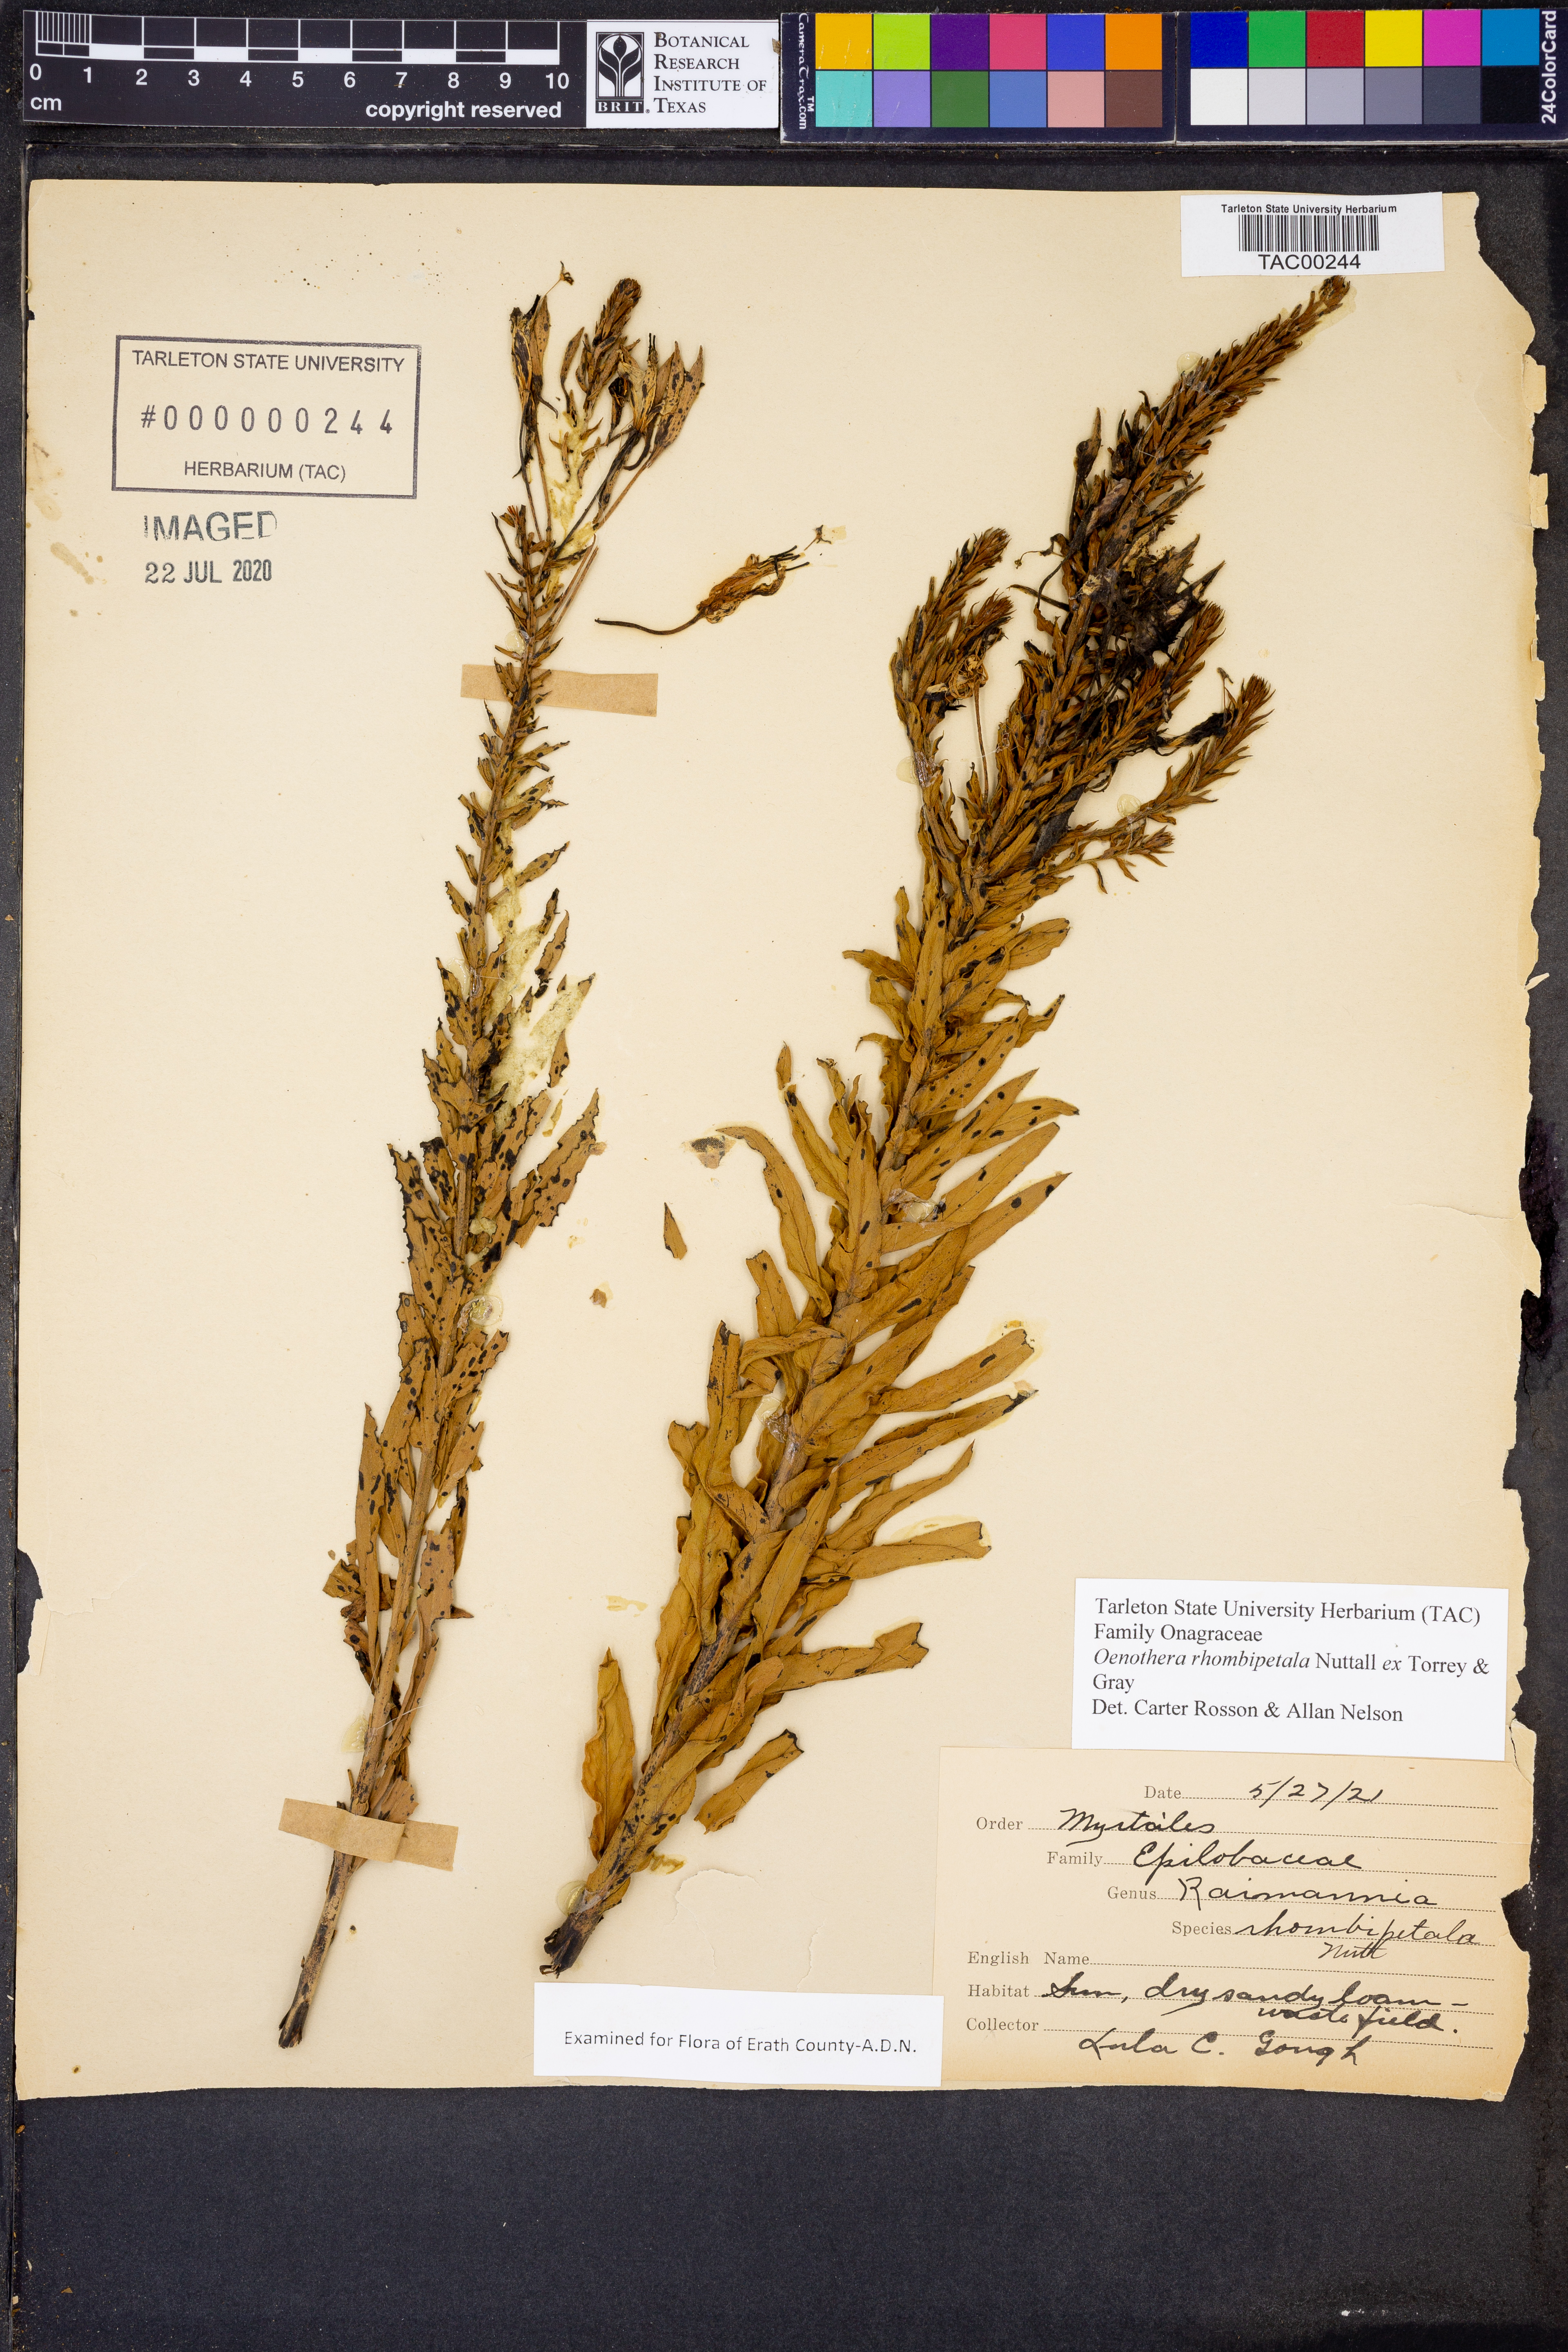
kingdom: Plantae
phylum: Tracheophyta
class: Magnoliopsida
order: Myrtales
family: Onagraceae
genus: Oenothera
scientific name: Oenothera rhombipetala
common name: Four-points evening-primrose
